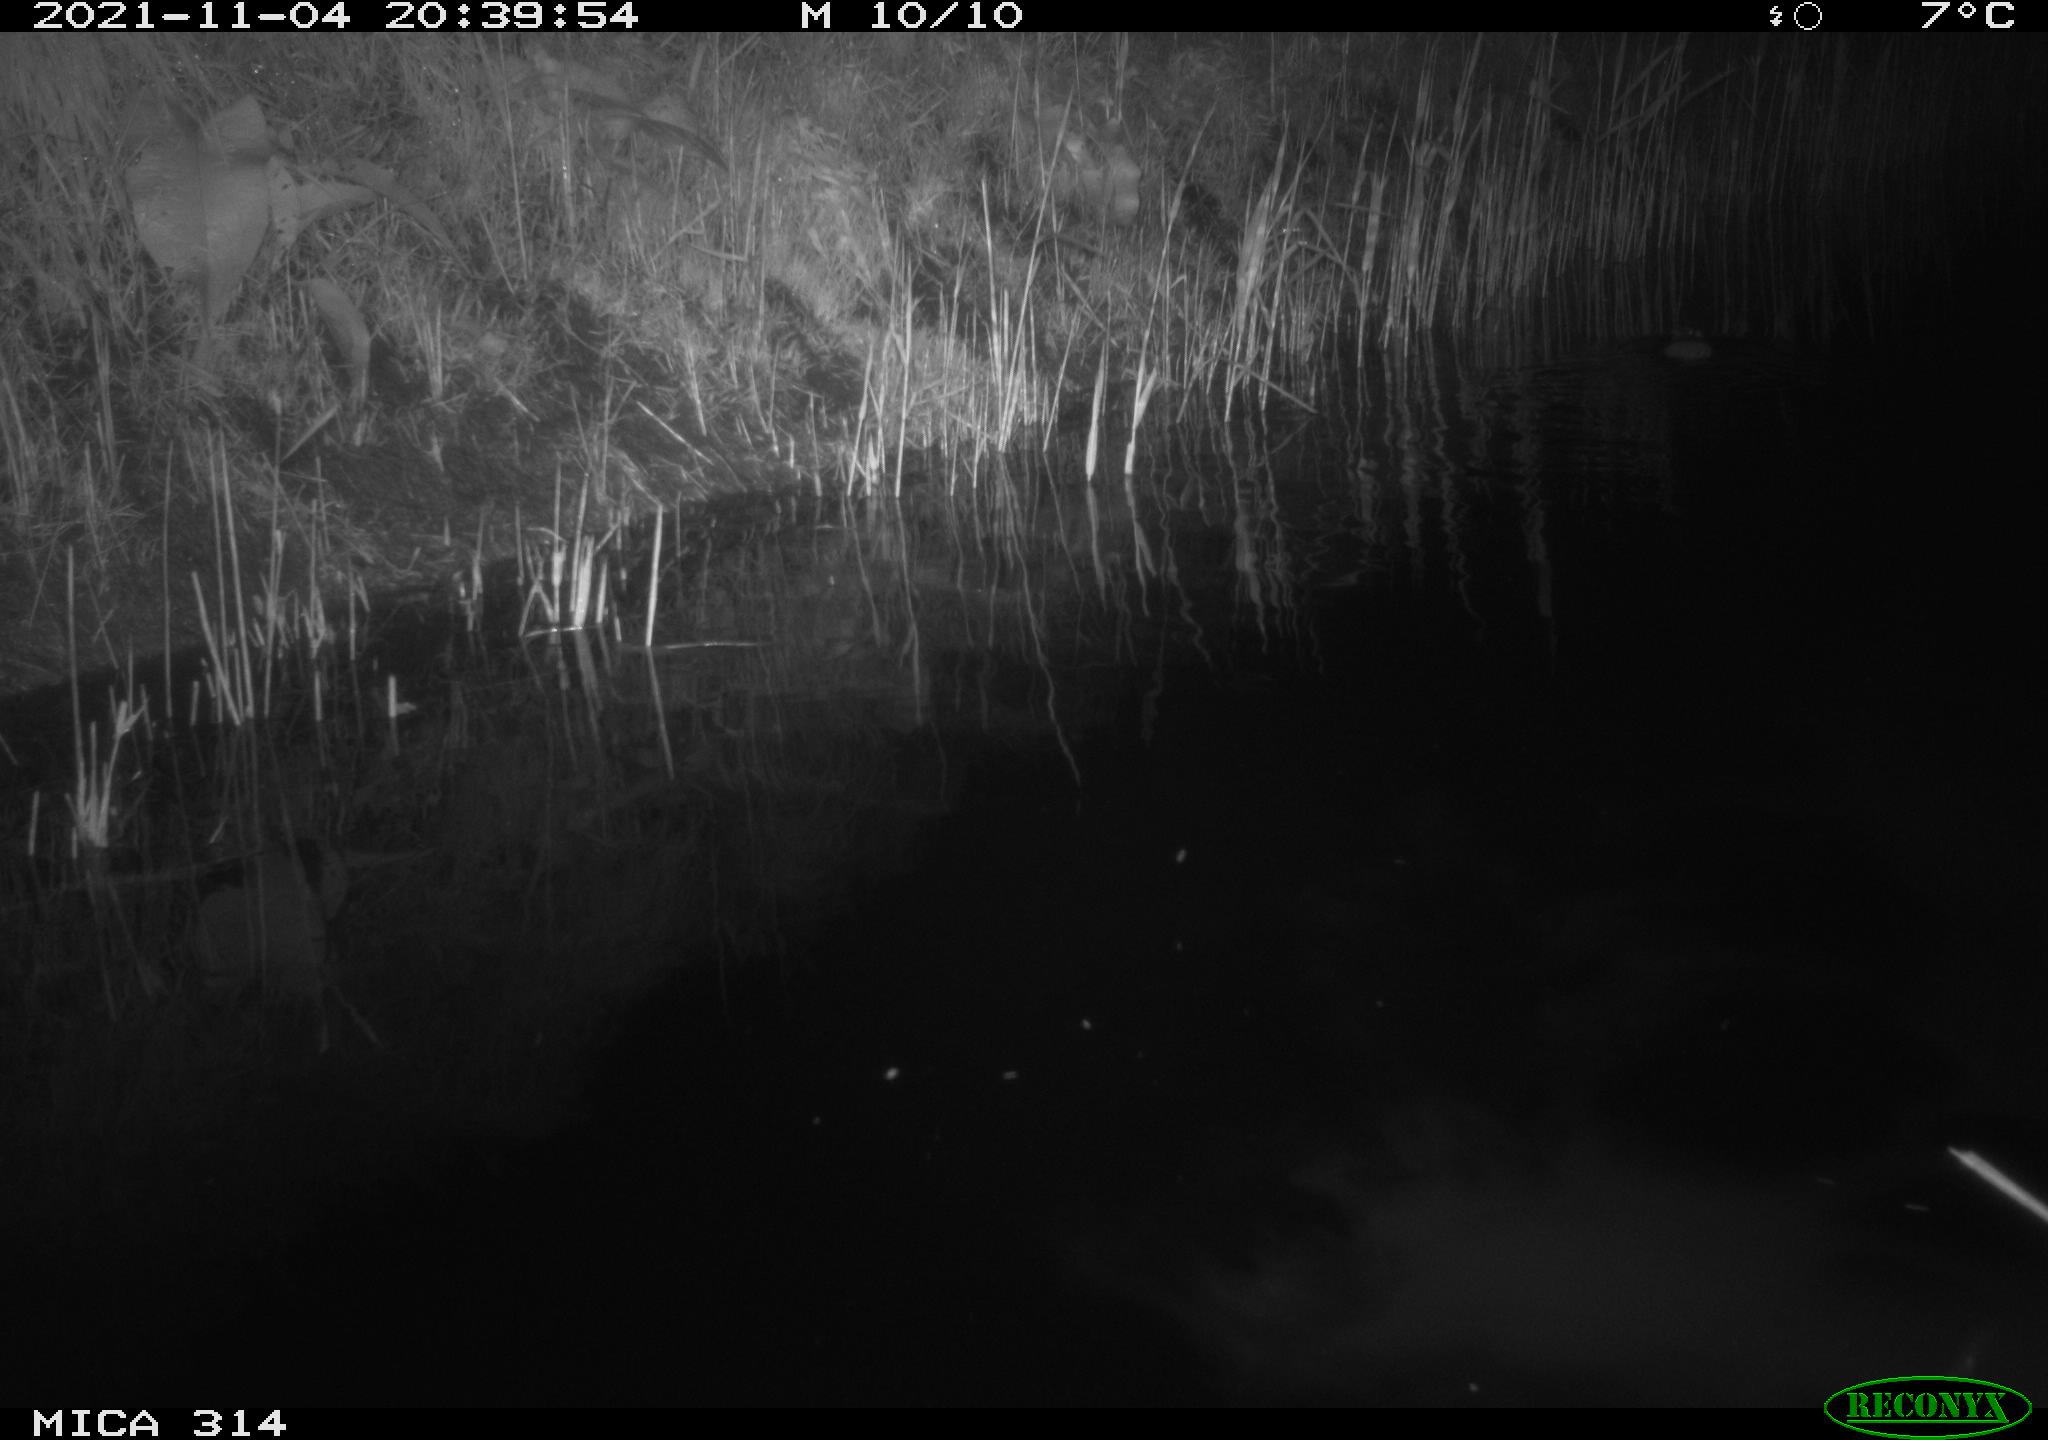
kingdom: Animalia
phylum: Chordata
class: Mammalia
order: Rodentia
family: Muridae
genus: Rattus
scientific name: Rattus norvegicus
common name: Brown rat
